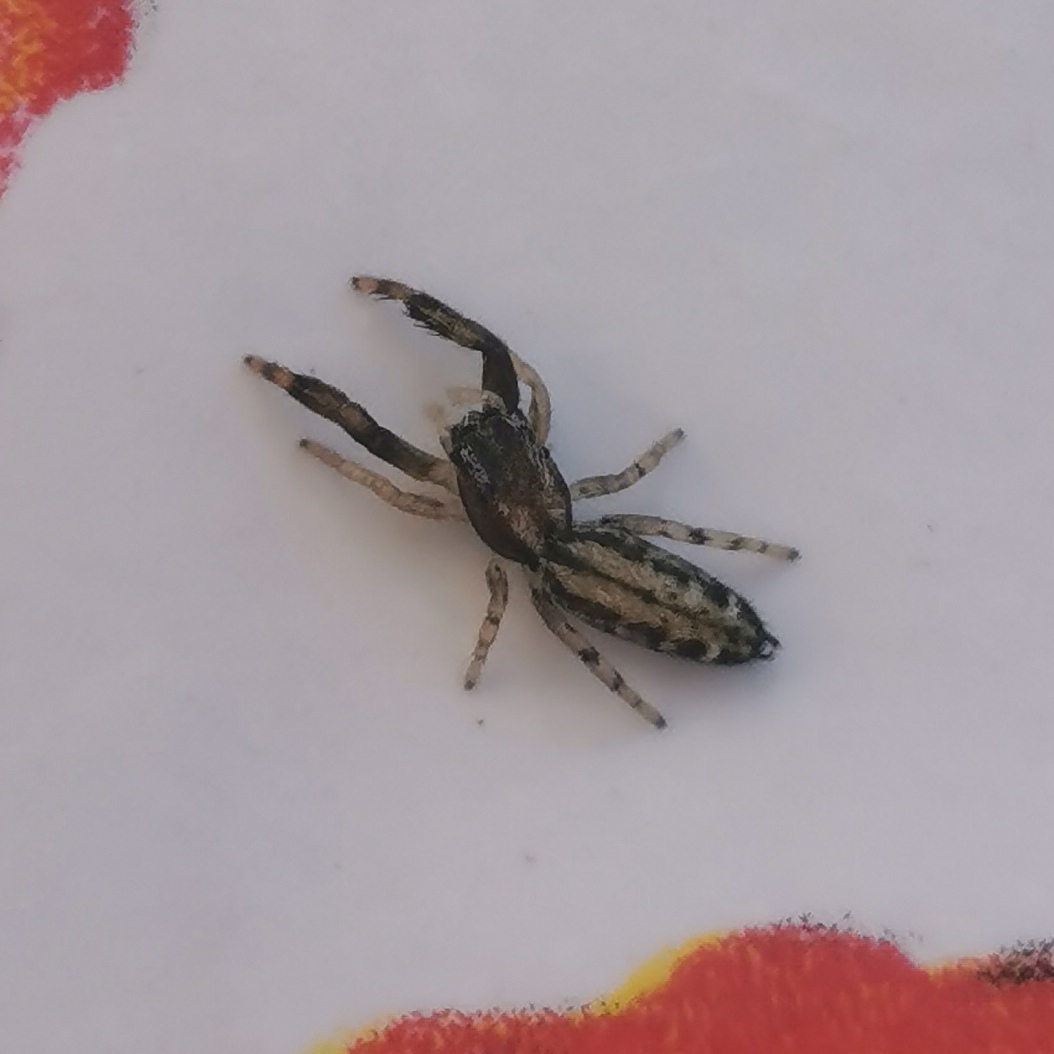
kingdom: Animalia
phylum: Arthropoda
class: Arachnida
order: Araneae
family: Salticidae
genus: Marpissa
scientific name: Marpissa nivoyi
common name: Klitspringedderkop
